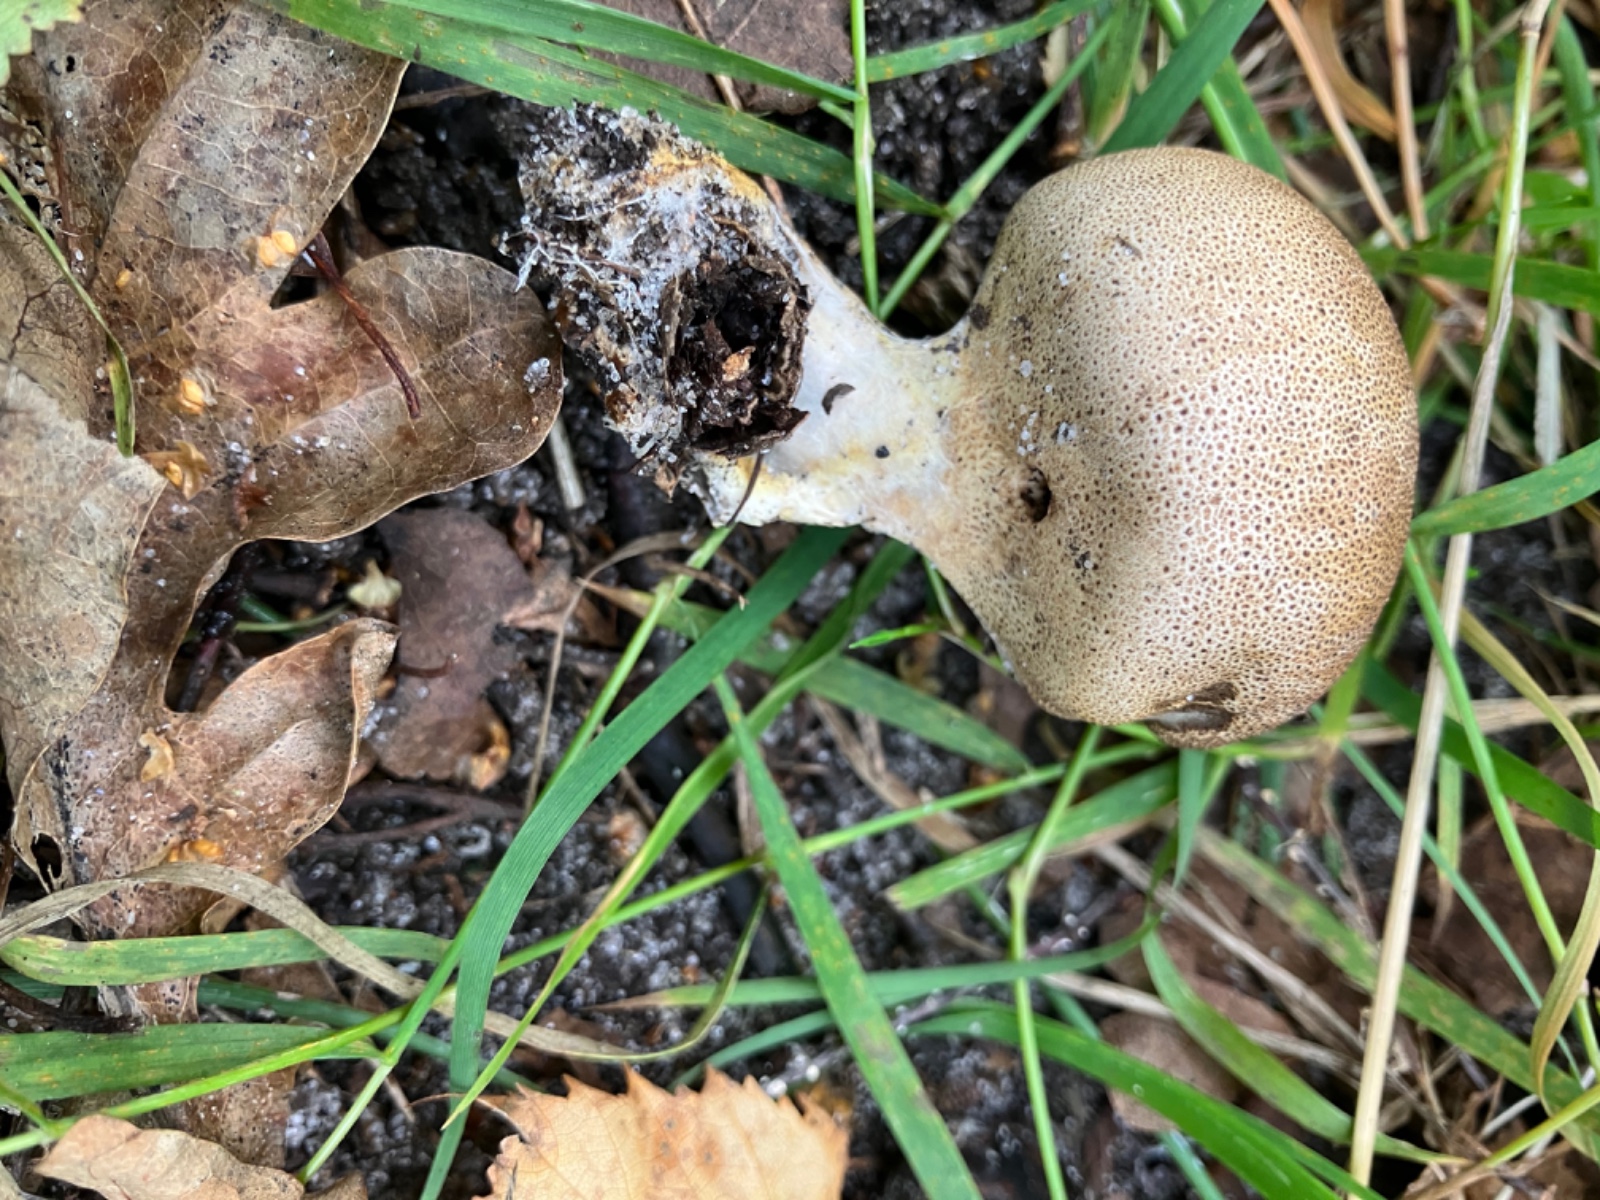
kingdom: Fungi
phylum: Basidiomycota
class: Agaricomycetes
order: Boletales
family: Sclerodermataceae
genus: Scleroderma
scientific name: Scleroderma areolatum
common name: plettet bruskbold
